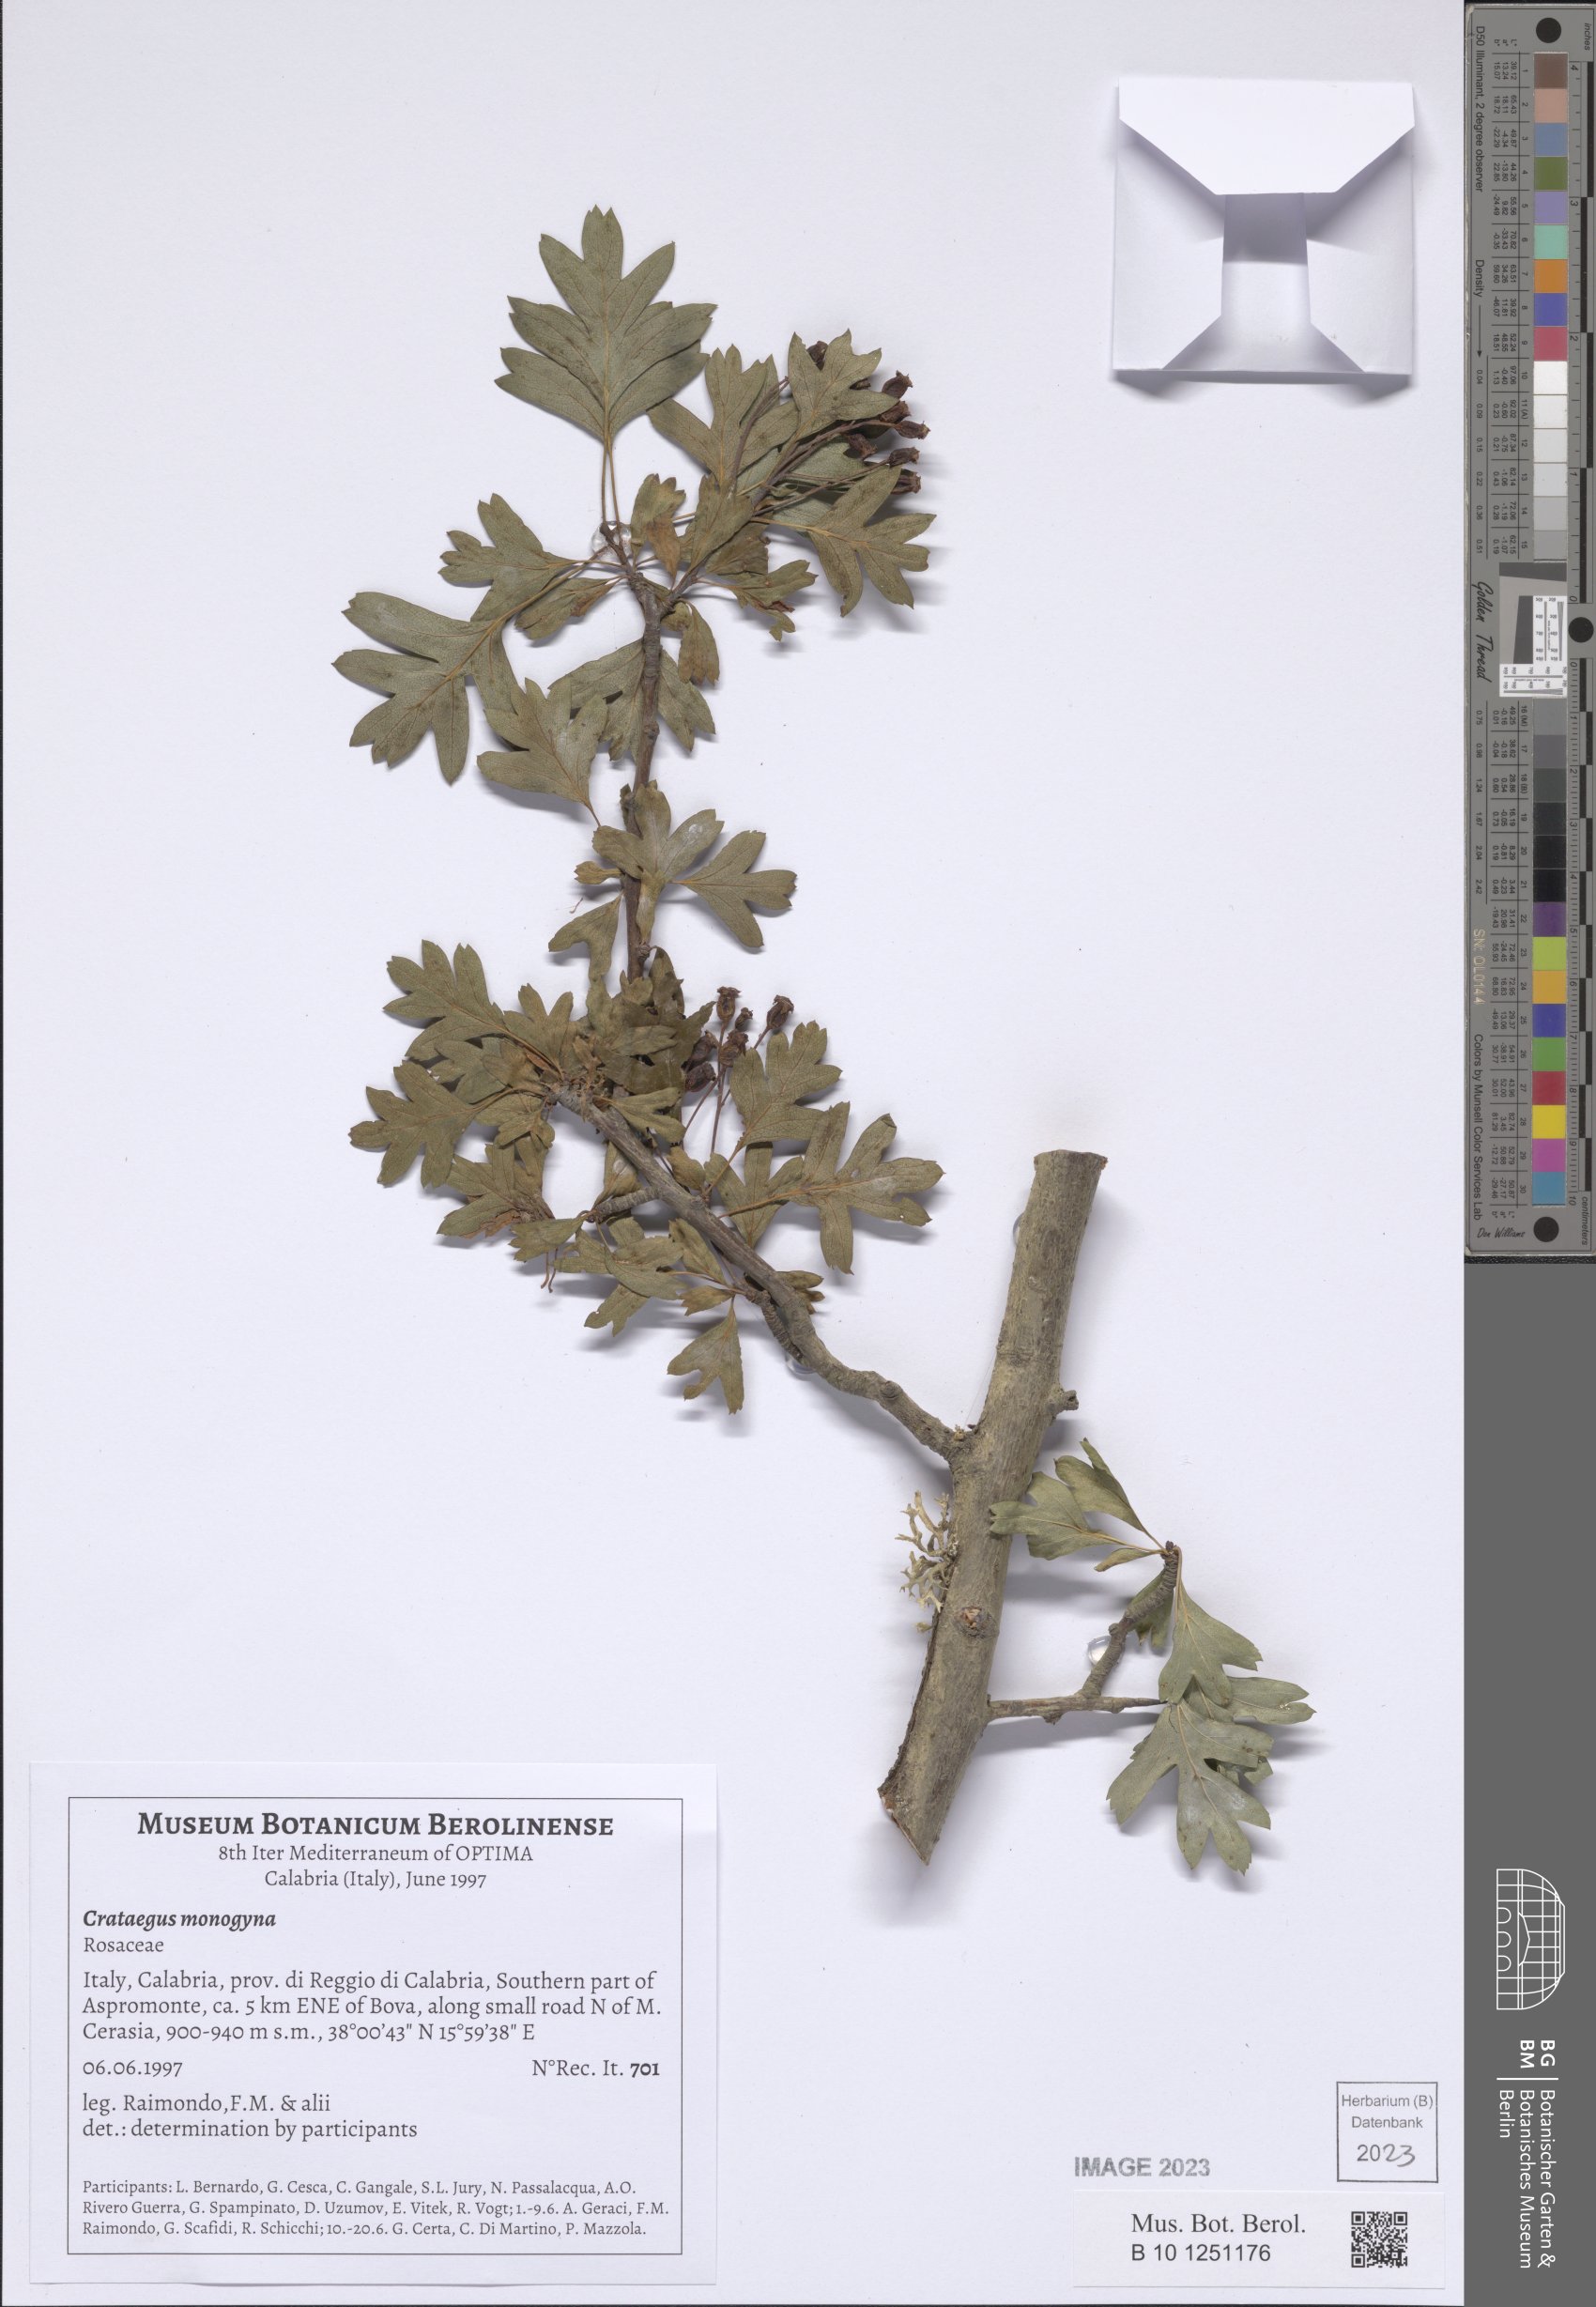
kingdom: Plantae
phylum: Tracheophyta
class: Magnoliopsida
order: Rosales
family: Rosaceae
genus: Crataegus
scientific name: Crataegus monogyna
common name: Hawthorn
